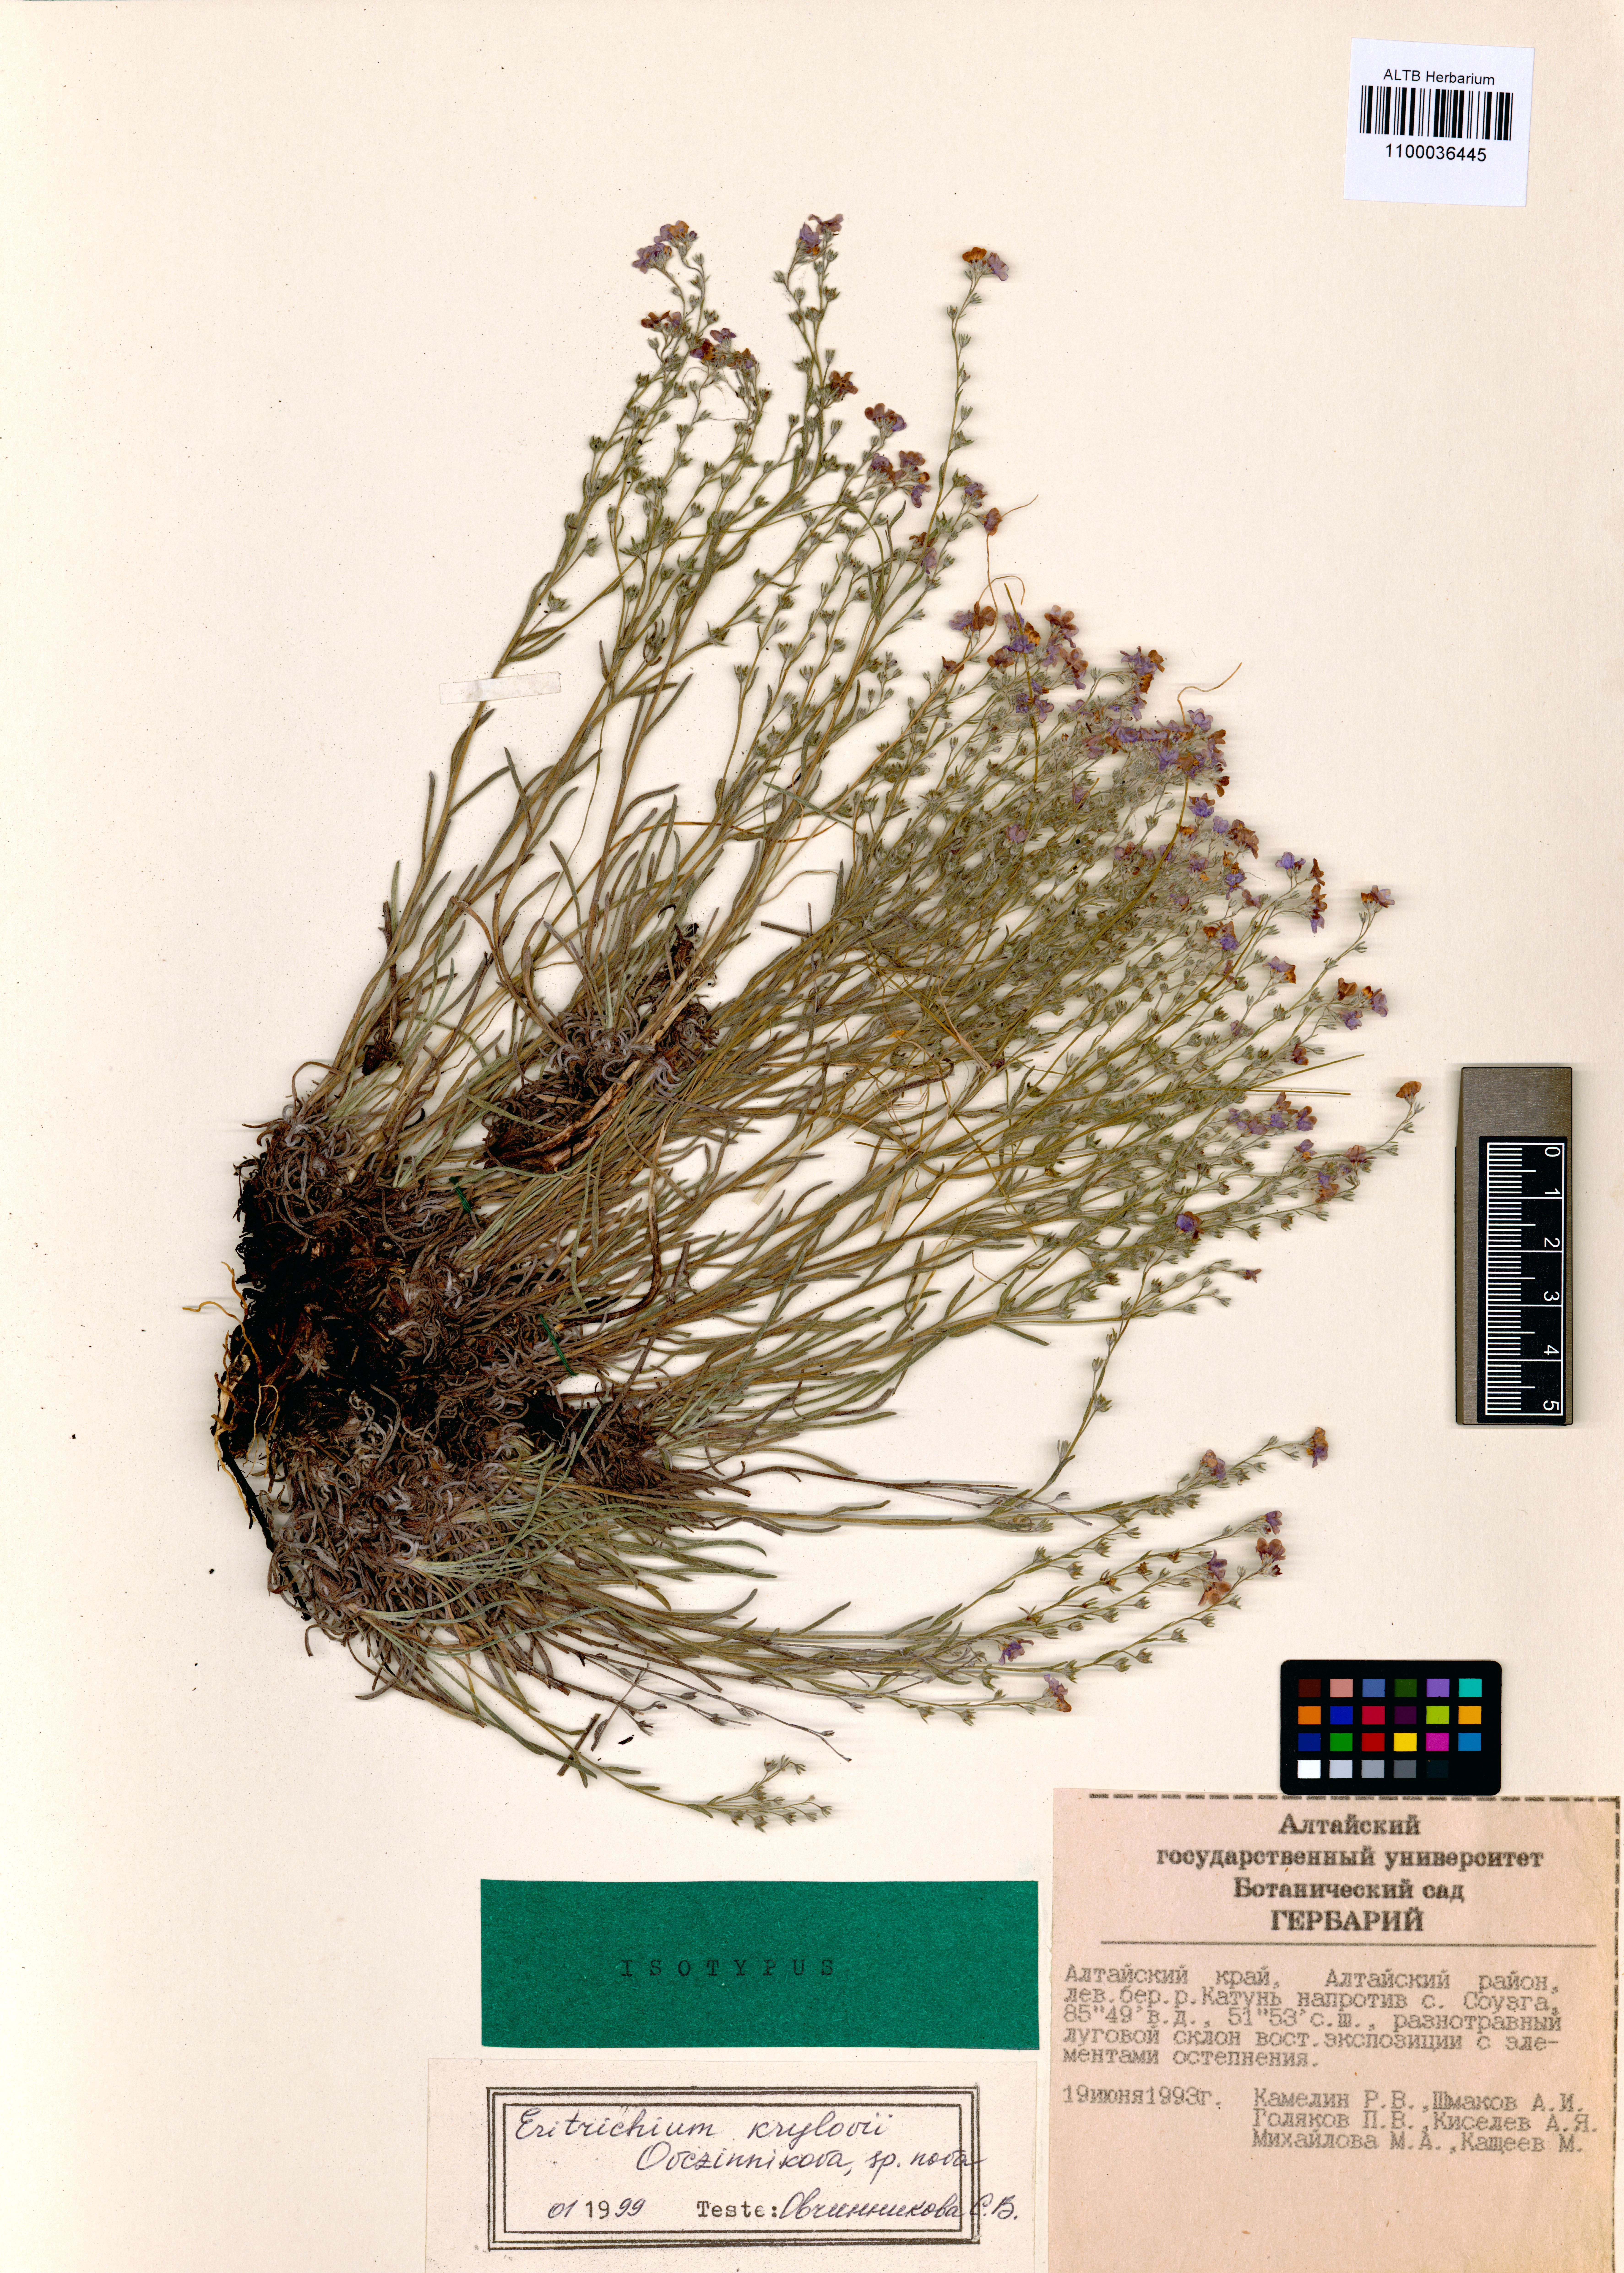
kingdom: Plantae
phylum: Tracheophyta
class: Magnoliopsida
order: Boraginales
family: Boraginaceae
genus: Eritrichium
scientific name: Eritrichium kamelinii
